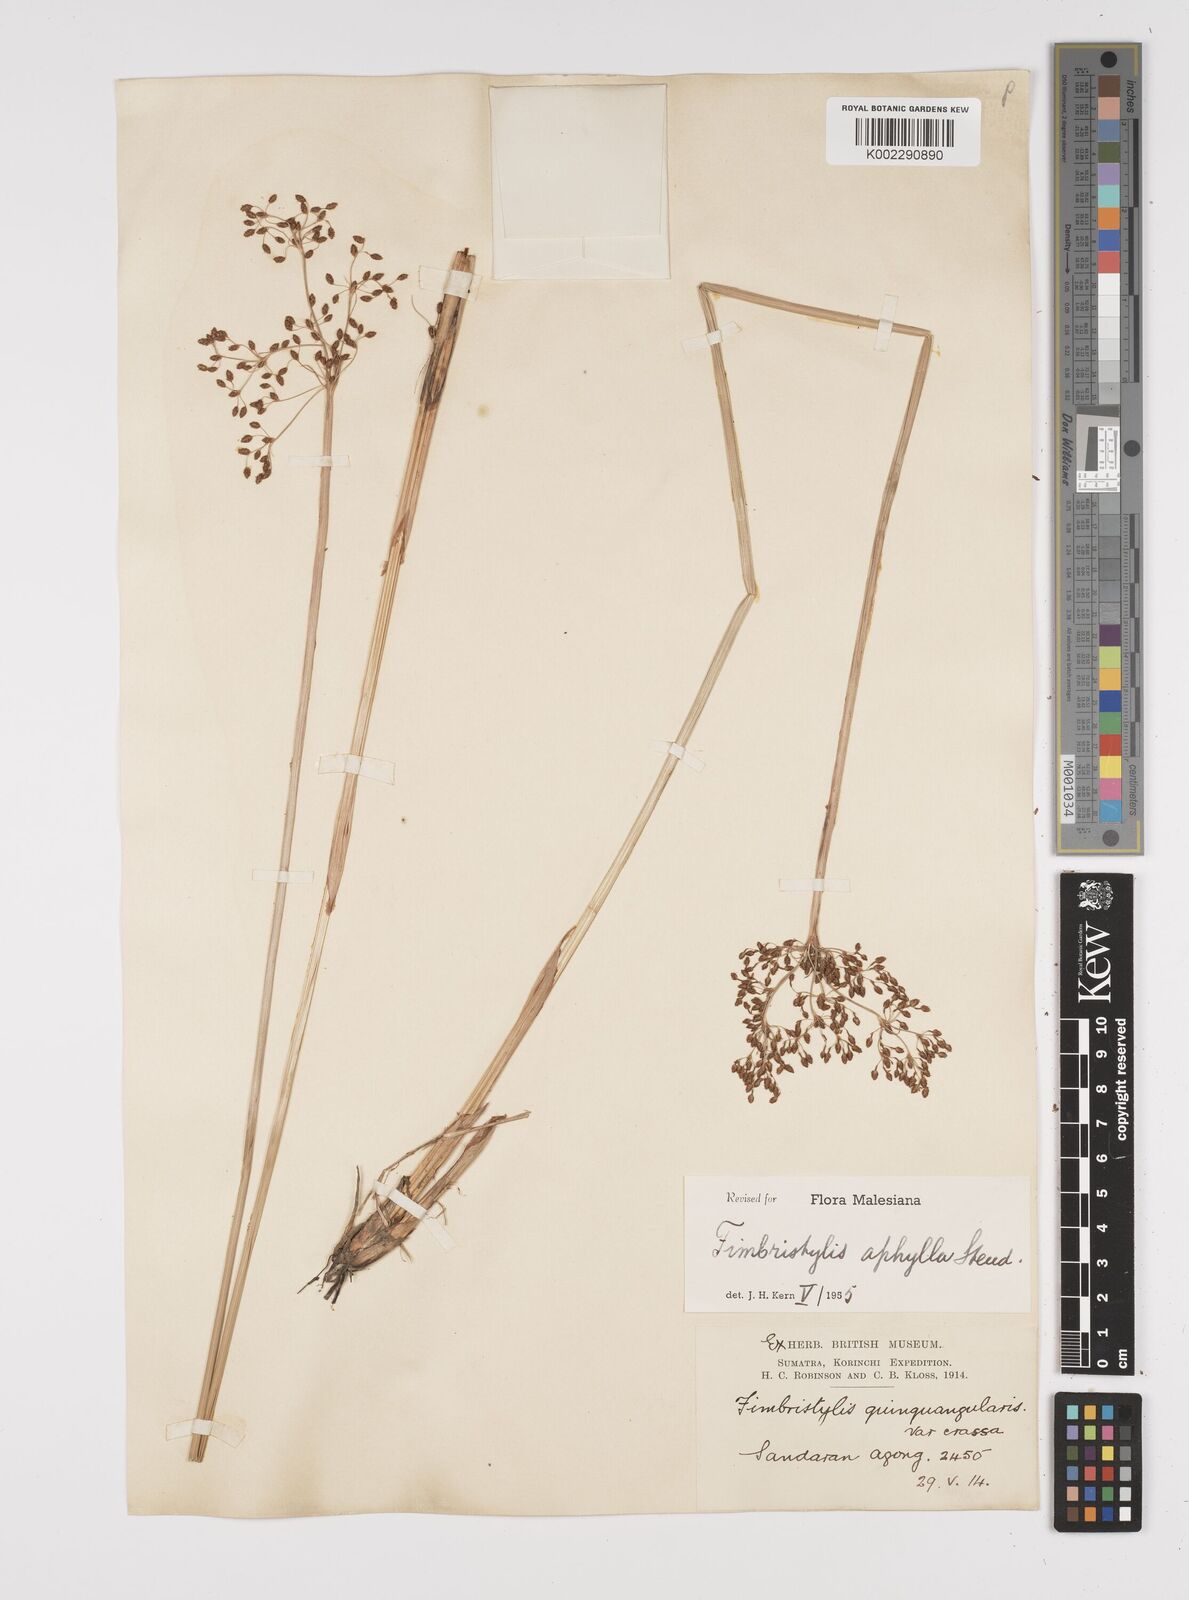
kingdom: Plantae
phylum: Tracheophyta
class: Liliopsida
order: Poales
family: Cyperaceae
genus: Fimbristylis
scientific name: Fimbristylis aphylla
